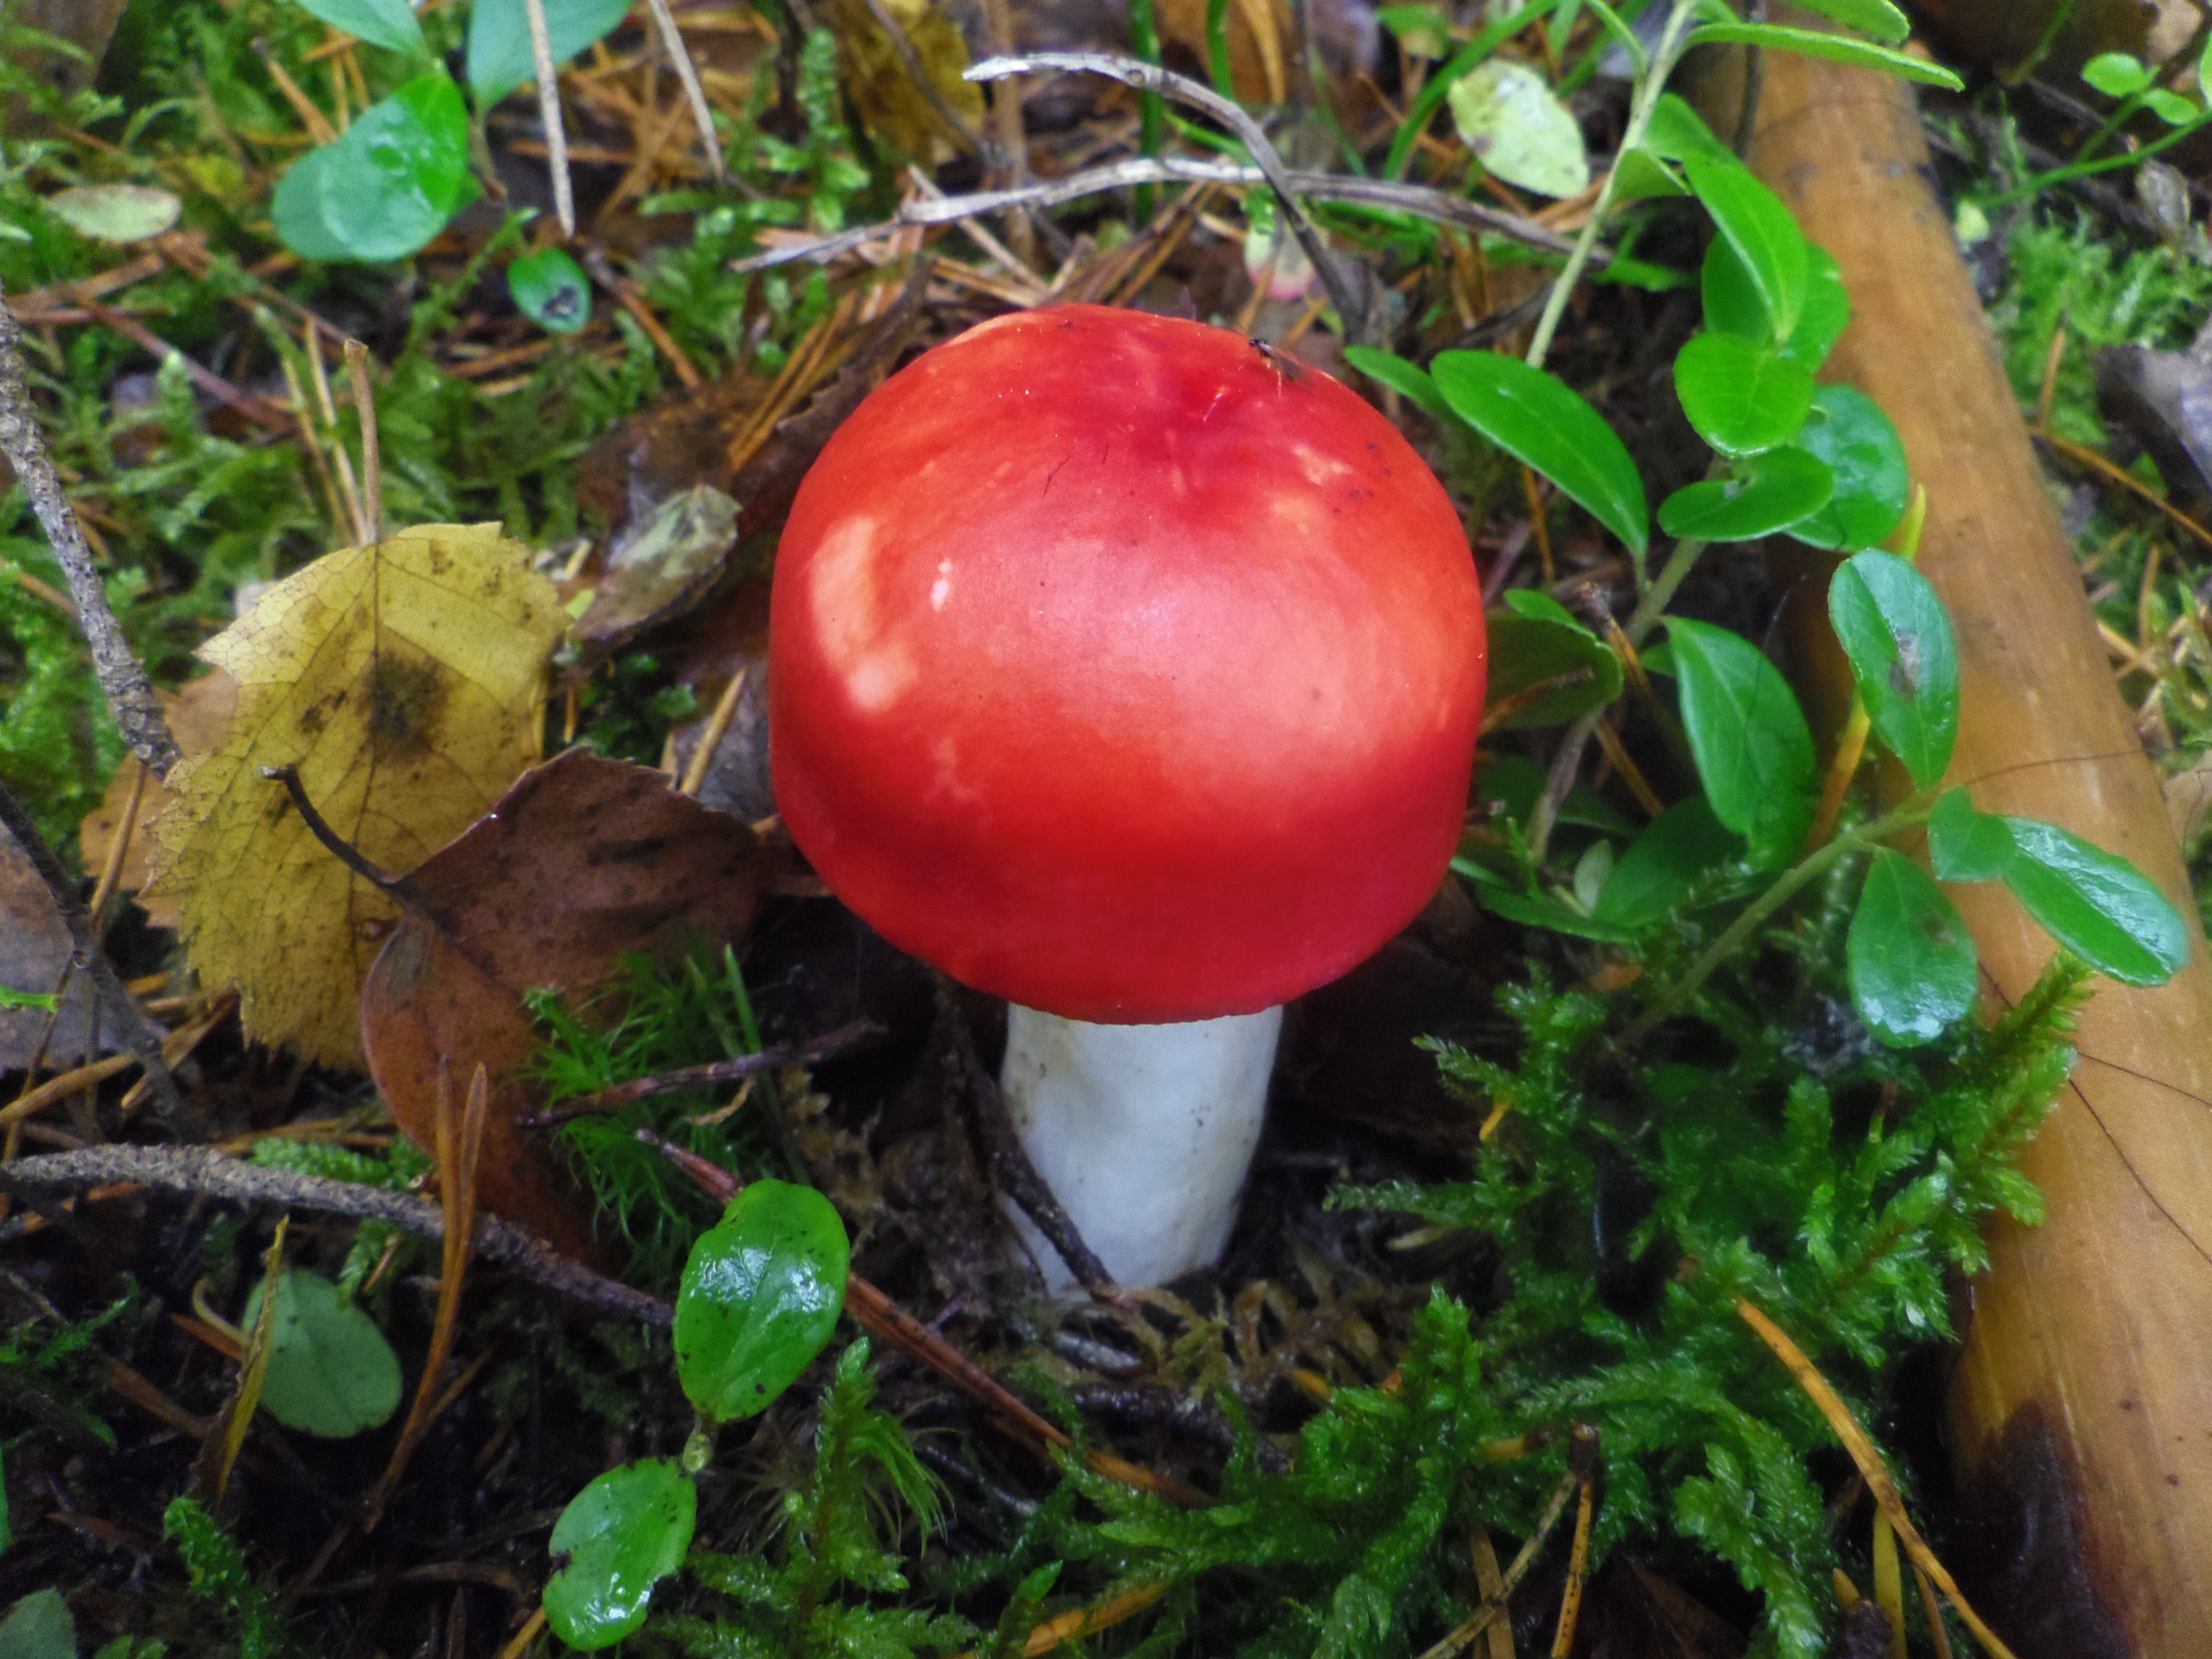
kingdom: Fungi
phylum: Basidiomycota
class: Agaricomycetes
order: Russulales
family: Russulaceae
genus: Russula
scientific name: Russula emetica
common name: Sickener
